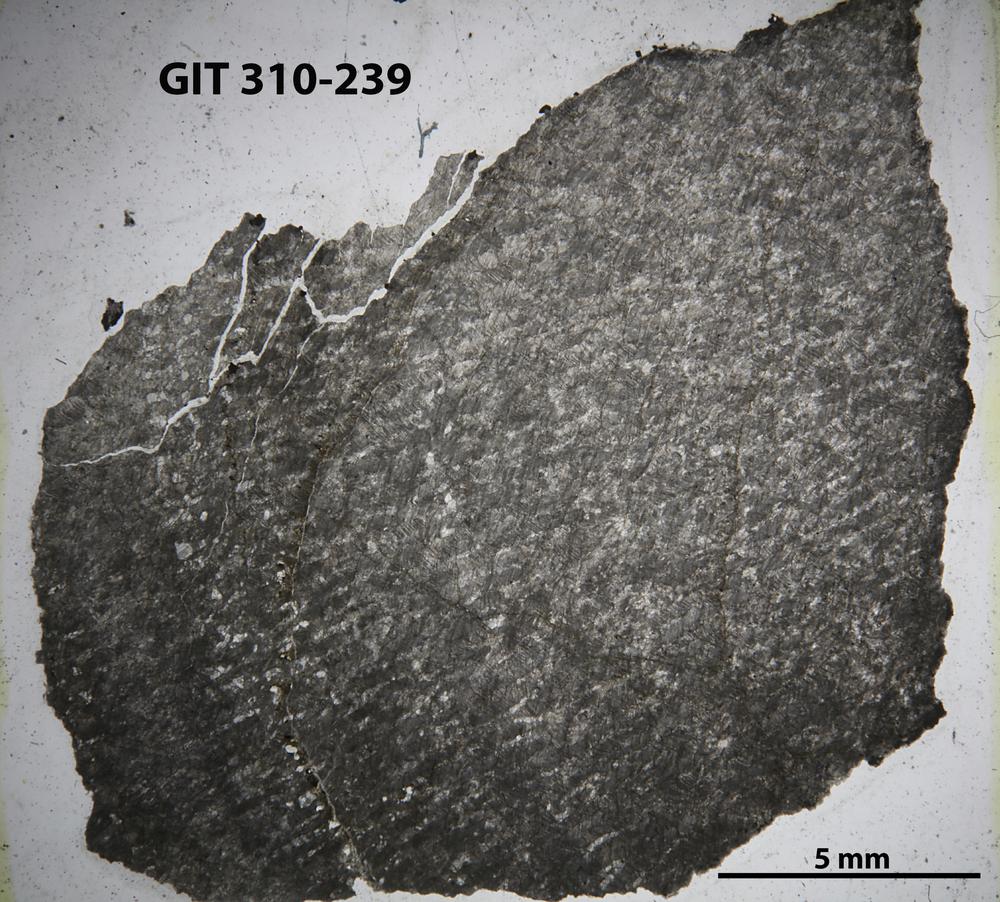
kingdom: Animalia
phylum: Porifera
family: Labechiidae
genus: Labechia
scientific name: Labechia
